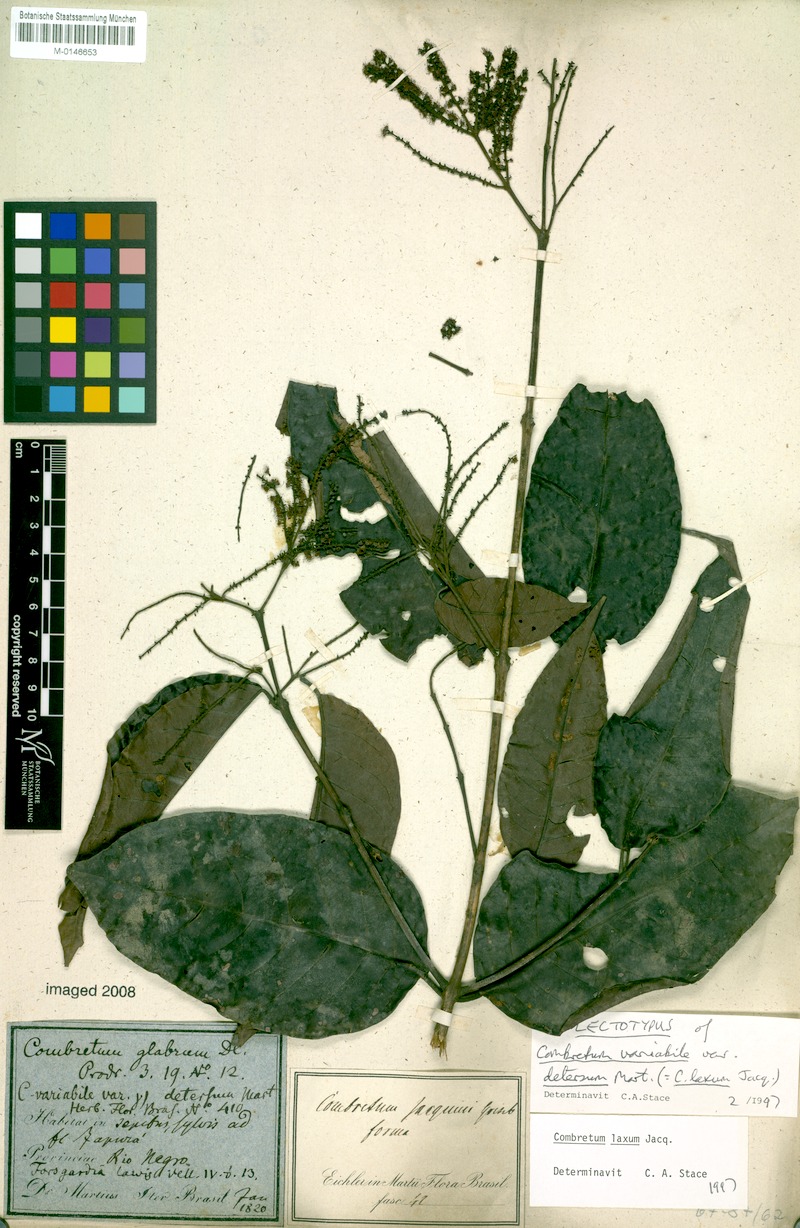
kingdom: Plantae
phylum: Tracheophyta
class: Magnoliopsida
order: Myrtales
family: Combretaceae
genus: Combretum
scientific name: Combretum laxum
